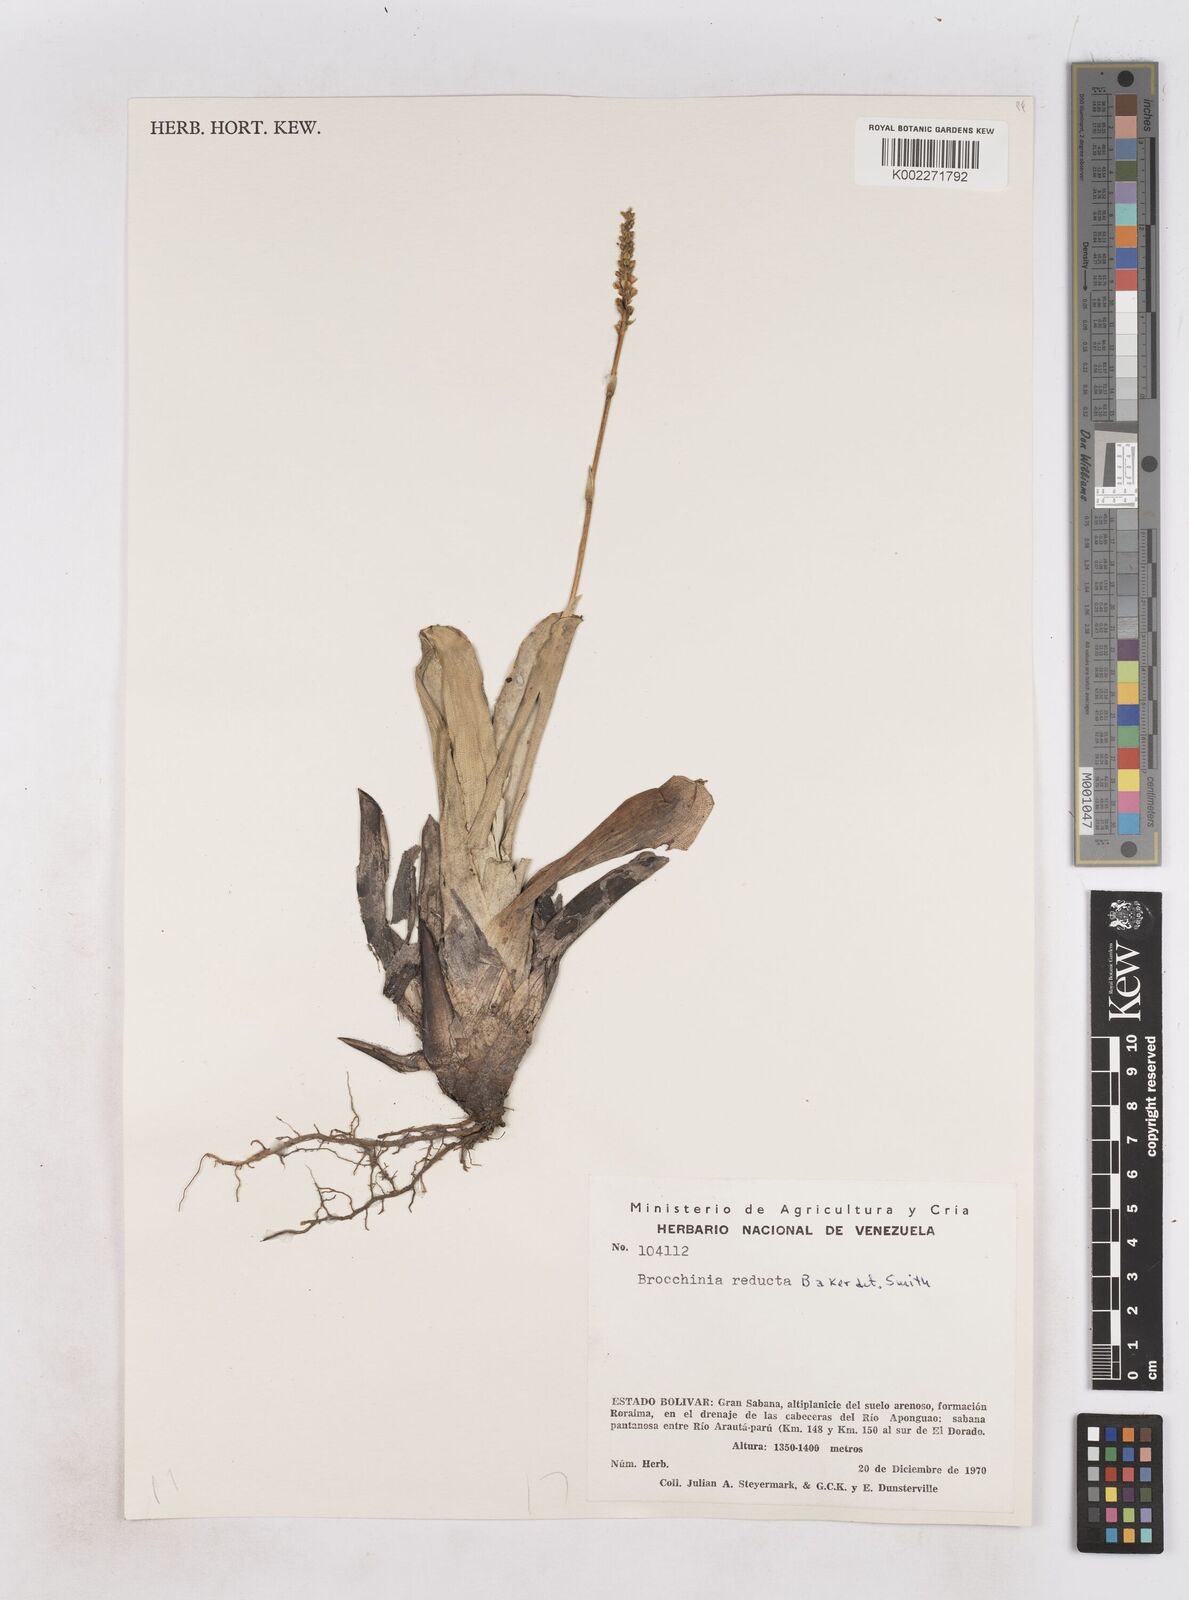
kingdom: Plantae
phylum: Tracheophyta
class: Liliopsida
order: Poales
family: Bromeliaceae
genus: Brocchinia
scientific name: Brocchinia reducta
